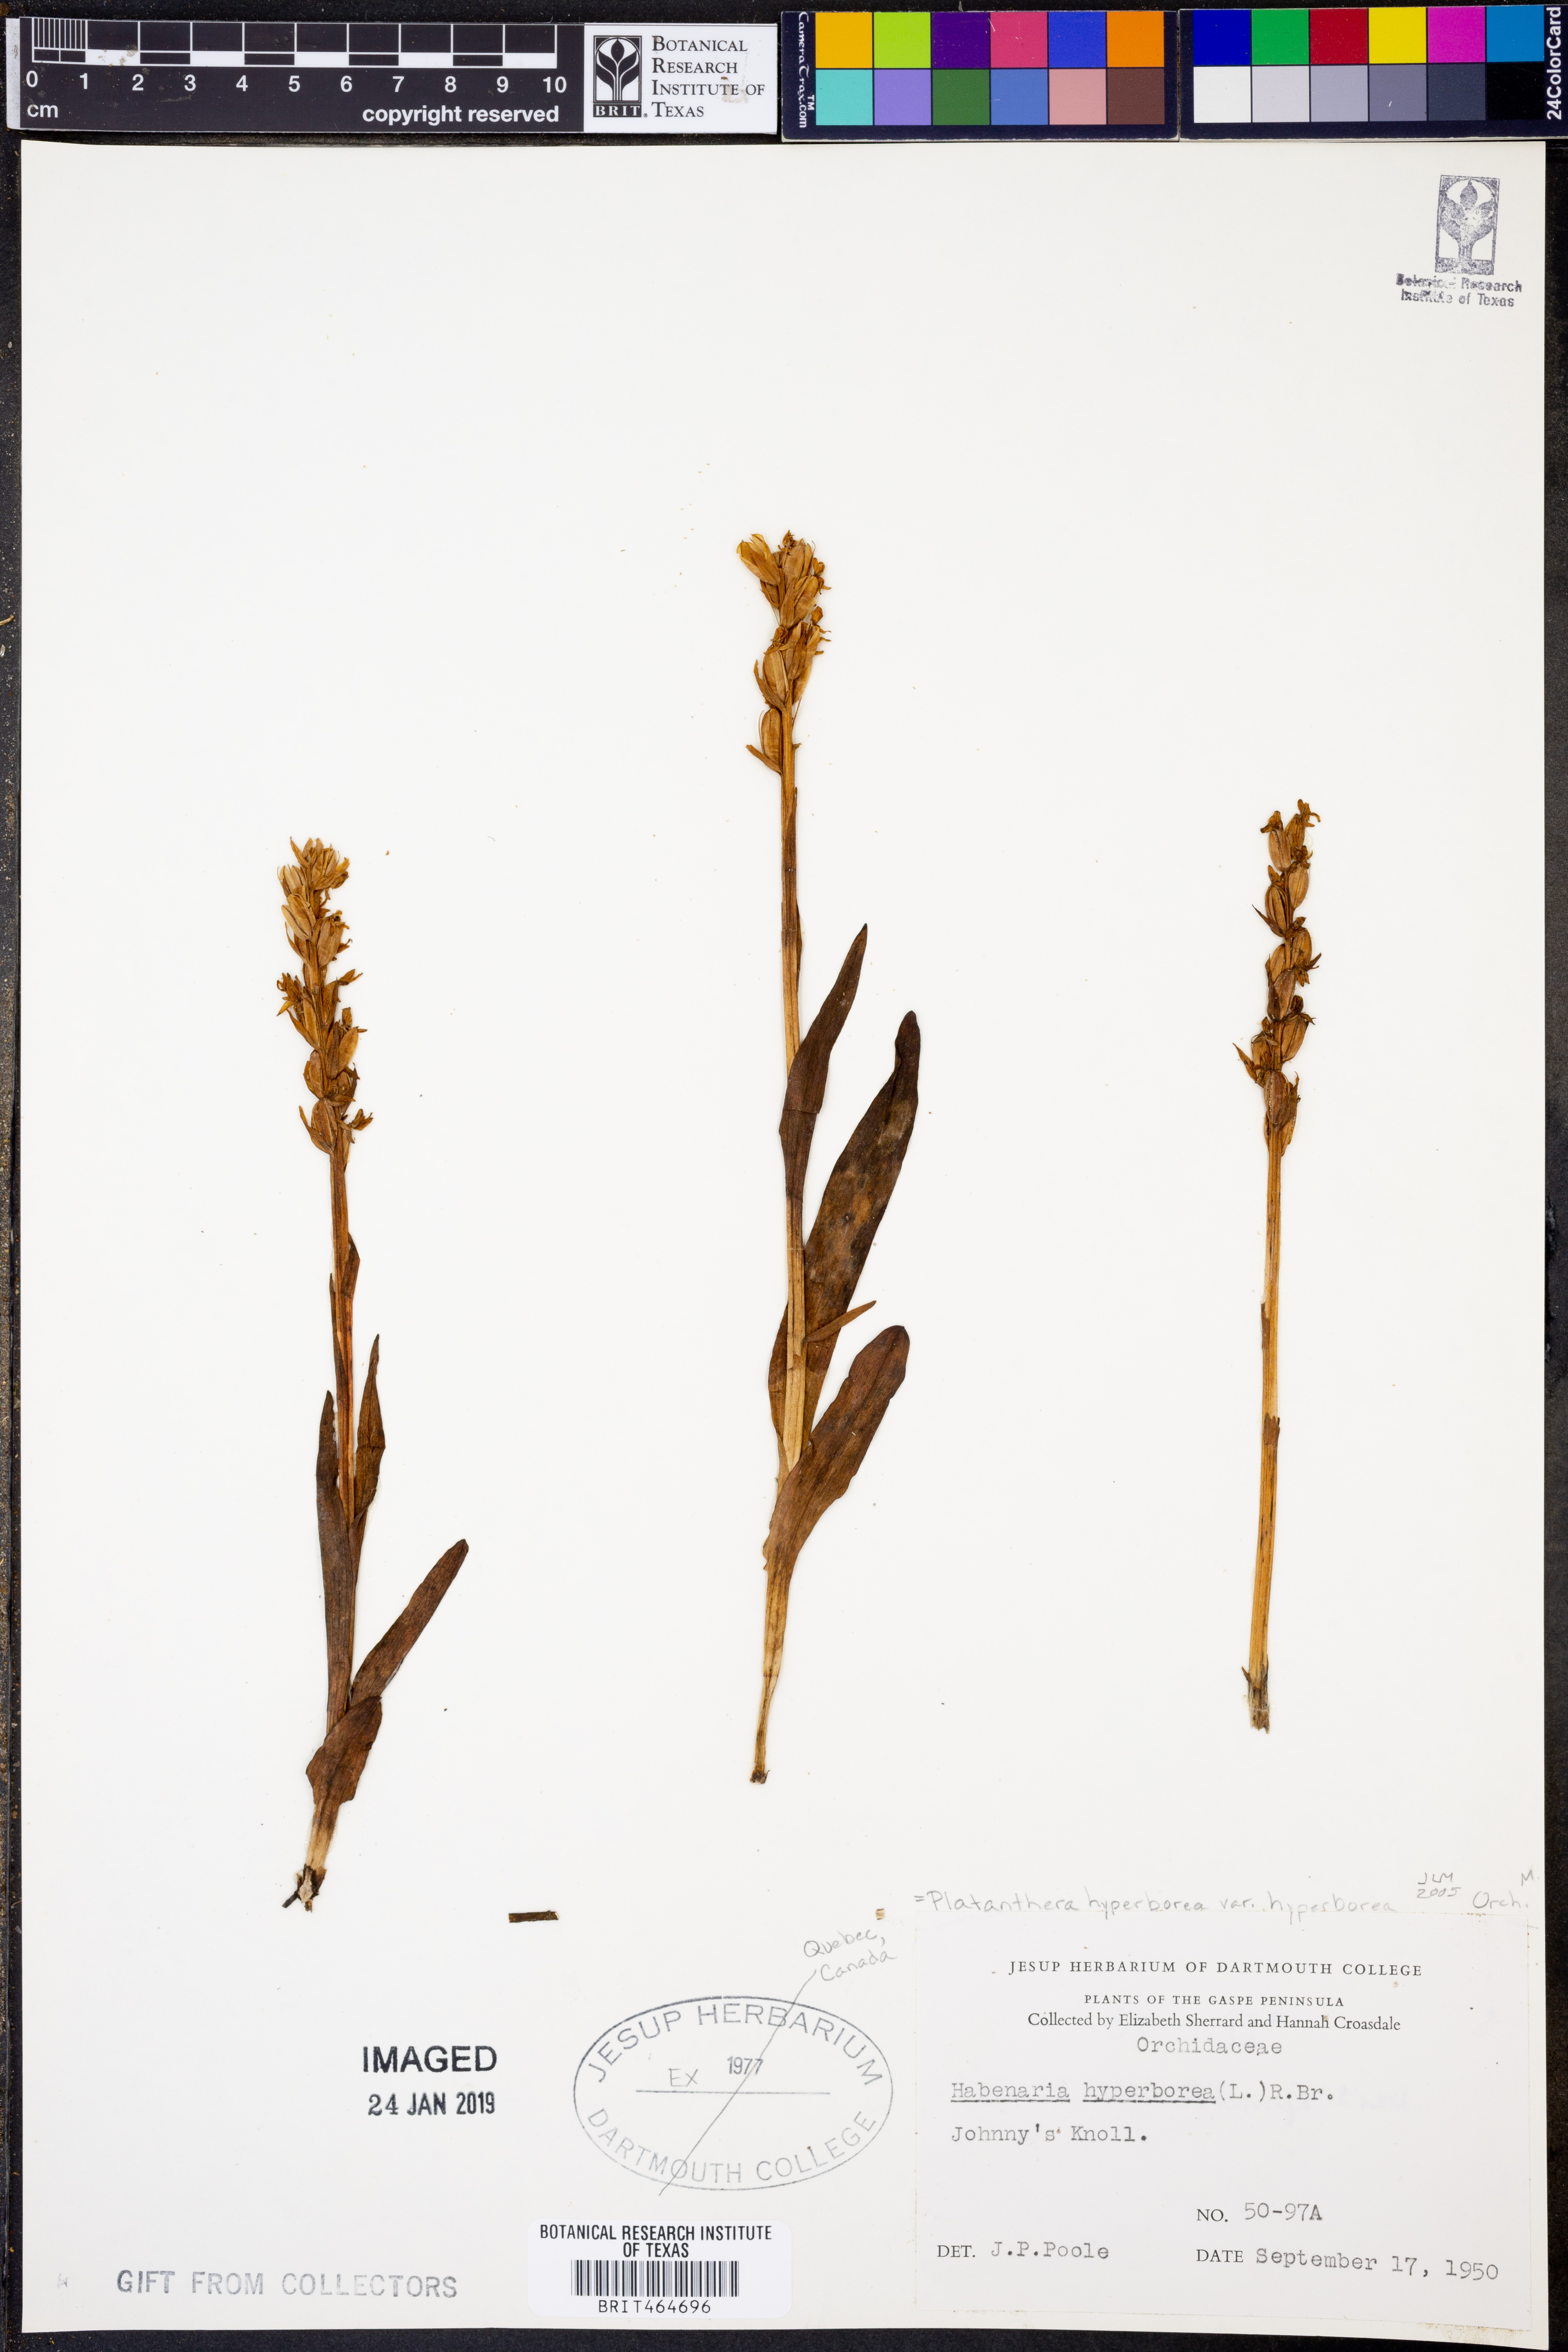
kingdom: Plantae
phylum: Tracheophyta
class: Liliopsida
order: Asparagales
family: Orchidaceae
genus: Platanthera
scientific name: Platanthera hyperborea
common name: Northern green orchid
